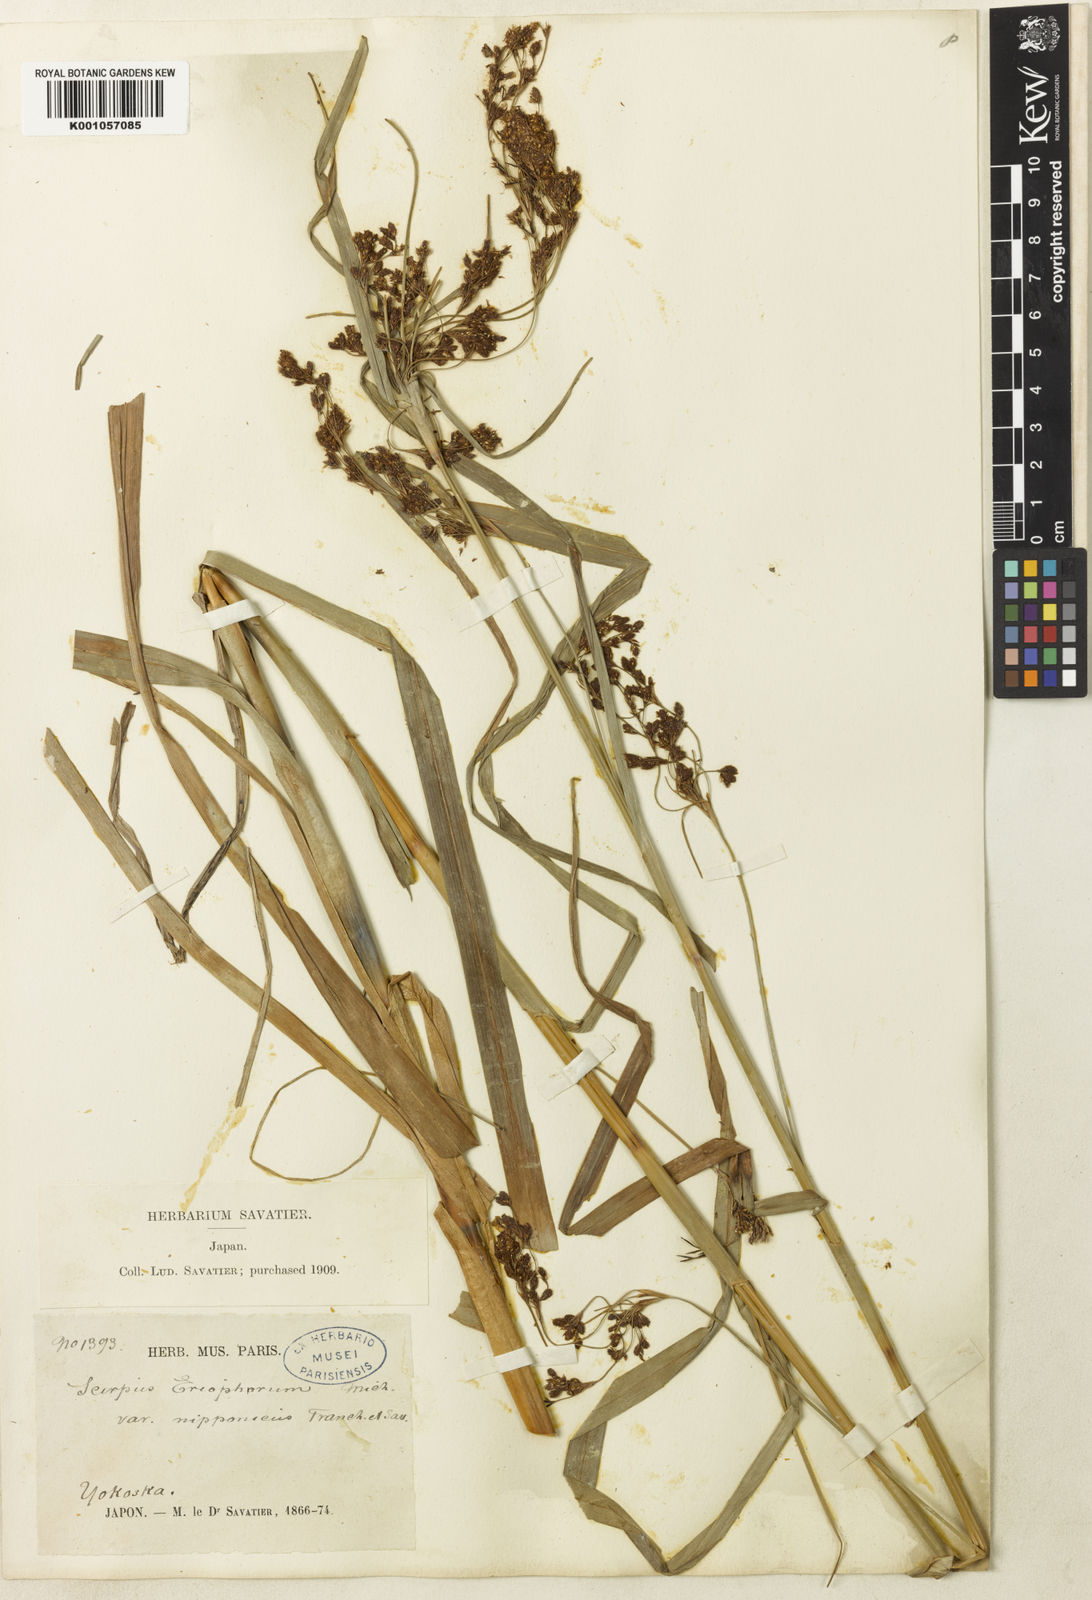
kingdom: Plantae
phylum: Tracheophyta
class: Liliopsida
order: Poales
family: Cyperaceae
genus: Scirpus
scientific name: Scirpus cyperinus
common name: Black-sheathed bulrush
